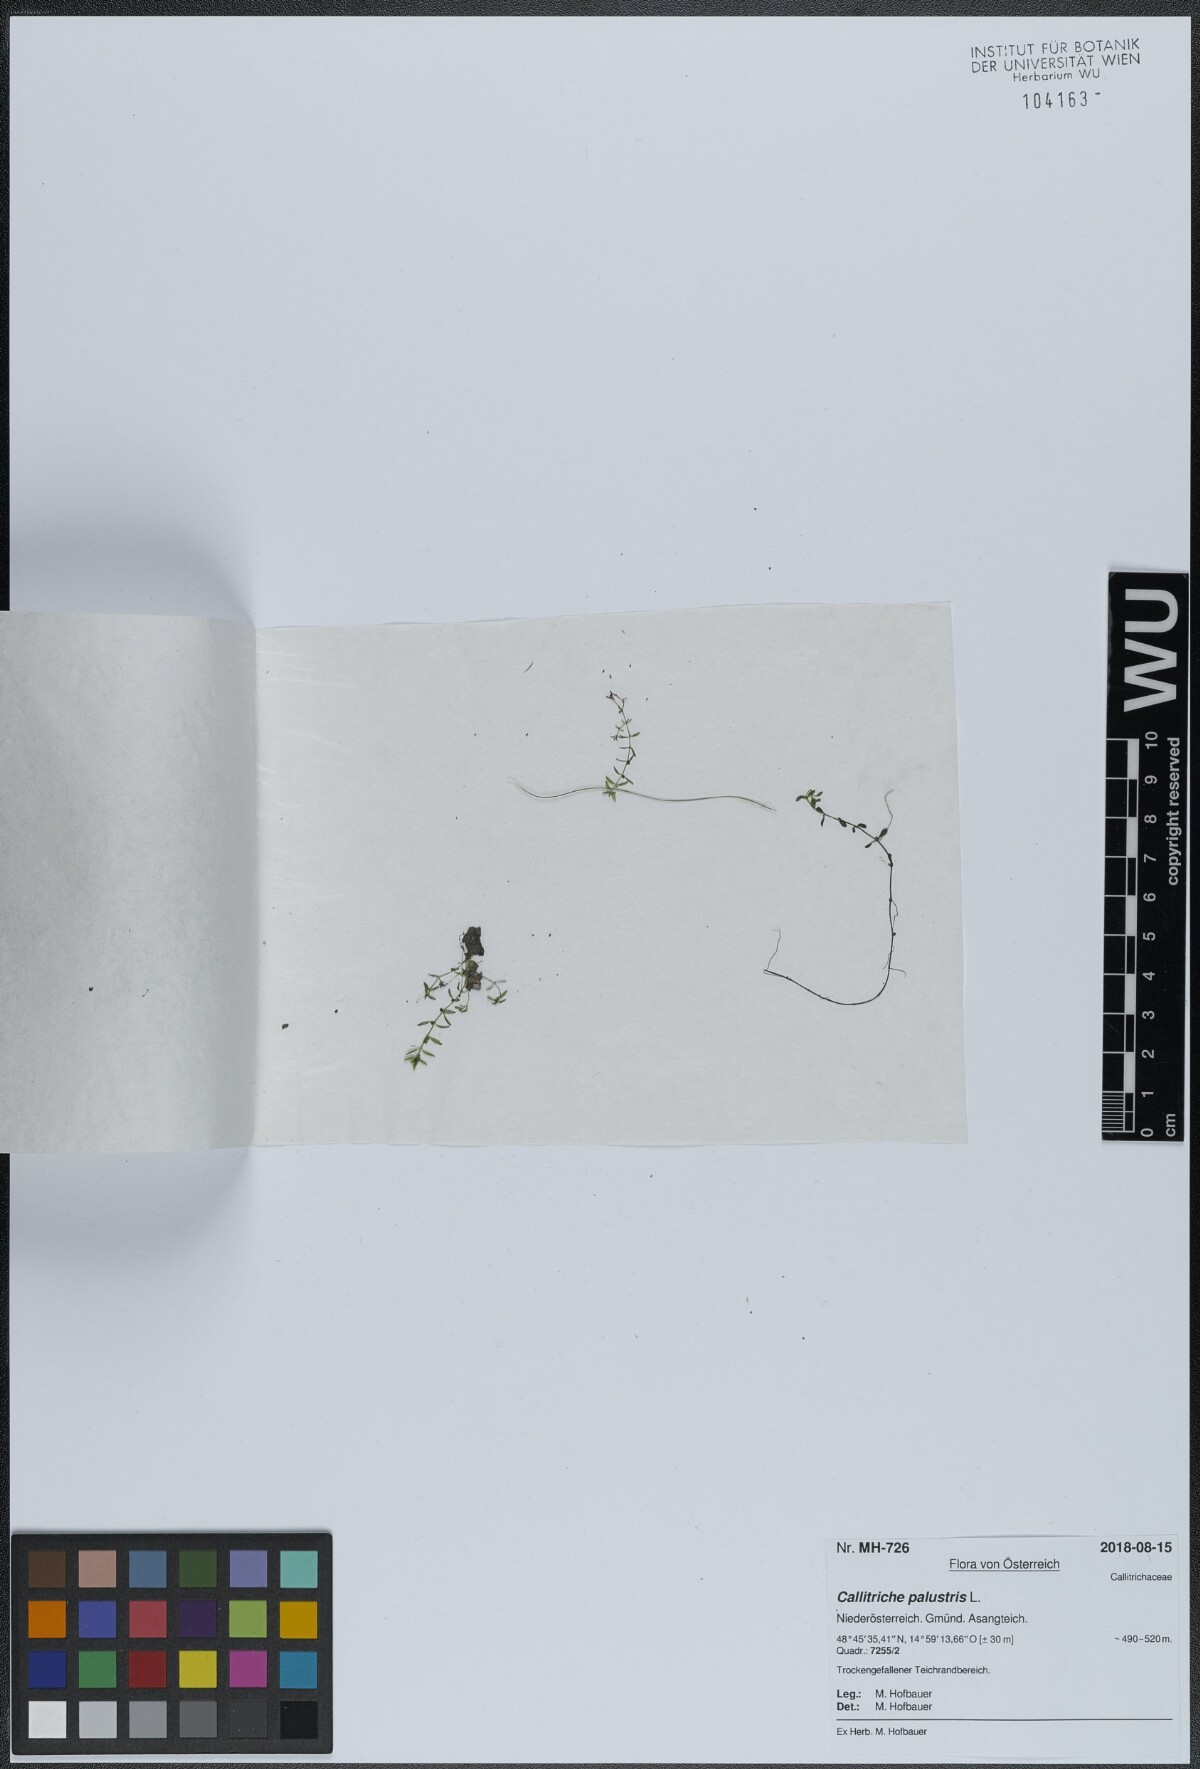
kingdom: Plantae
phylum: Tracheophyta
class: Magnoliopsida
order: Lamiales
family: Plantaginaceae
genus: Callitriche
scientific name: Callitriche palustris
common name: Spring water-starwort
